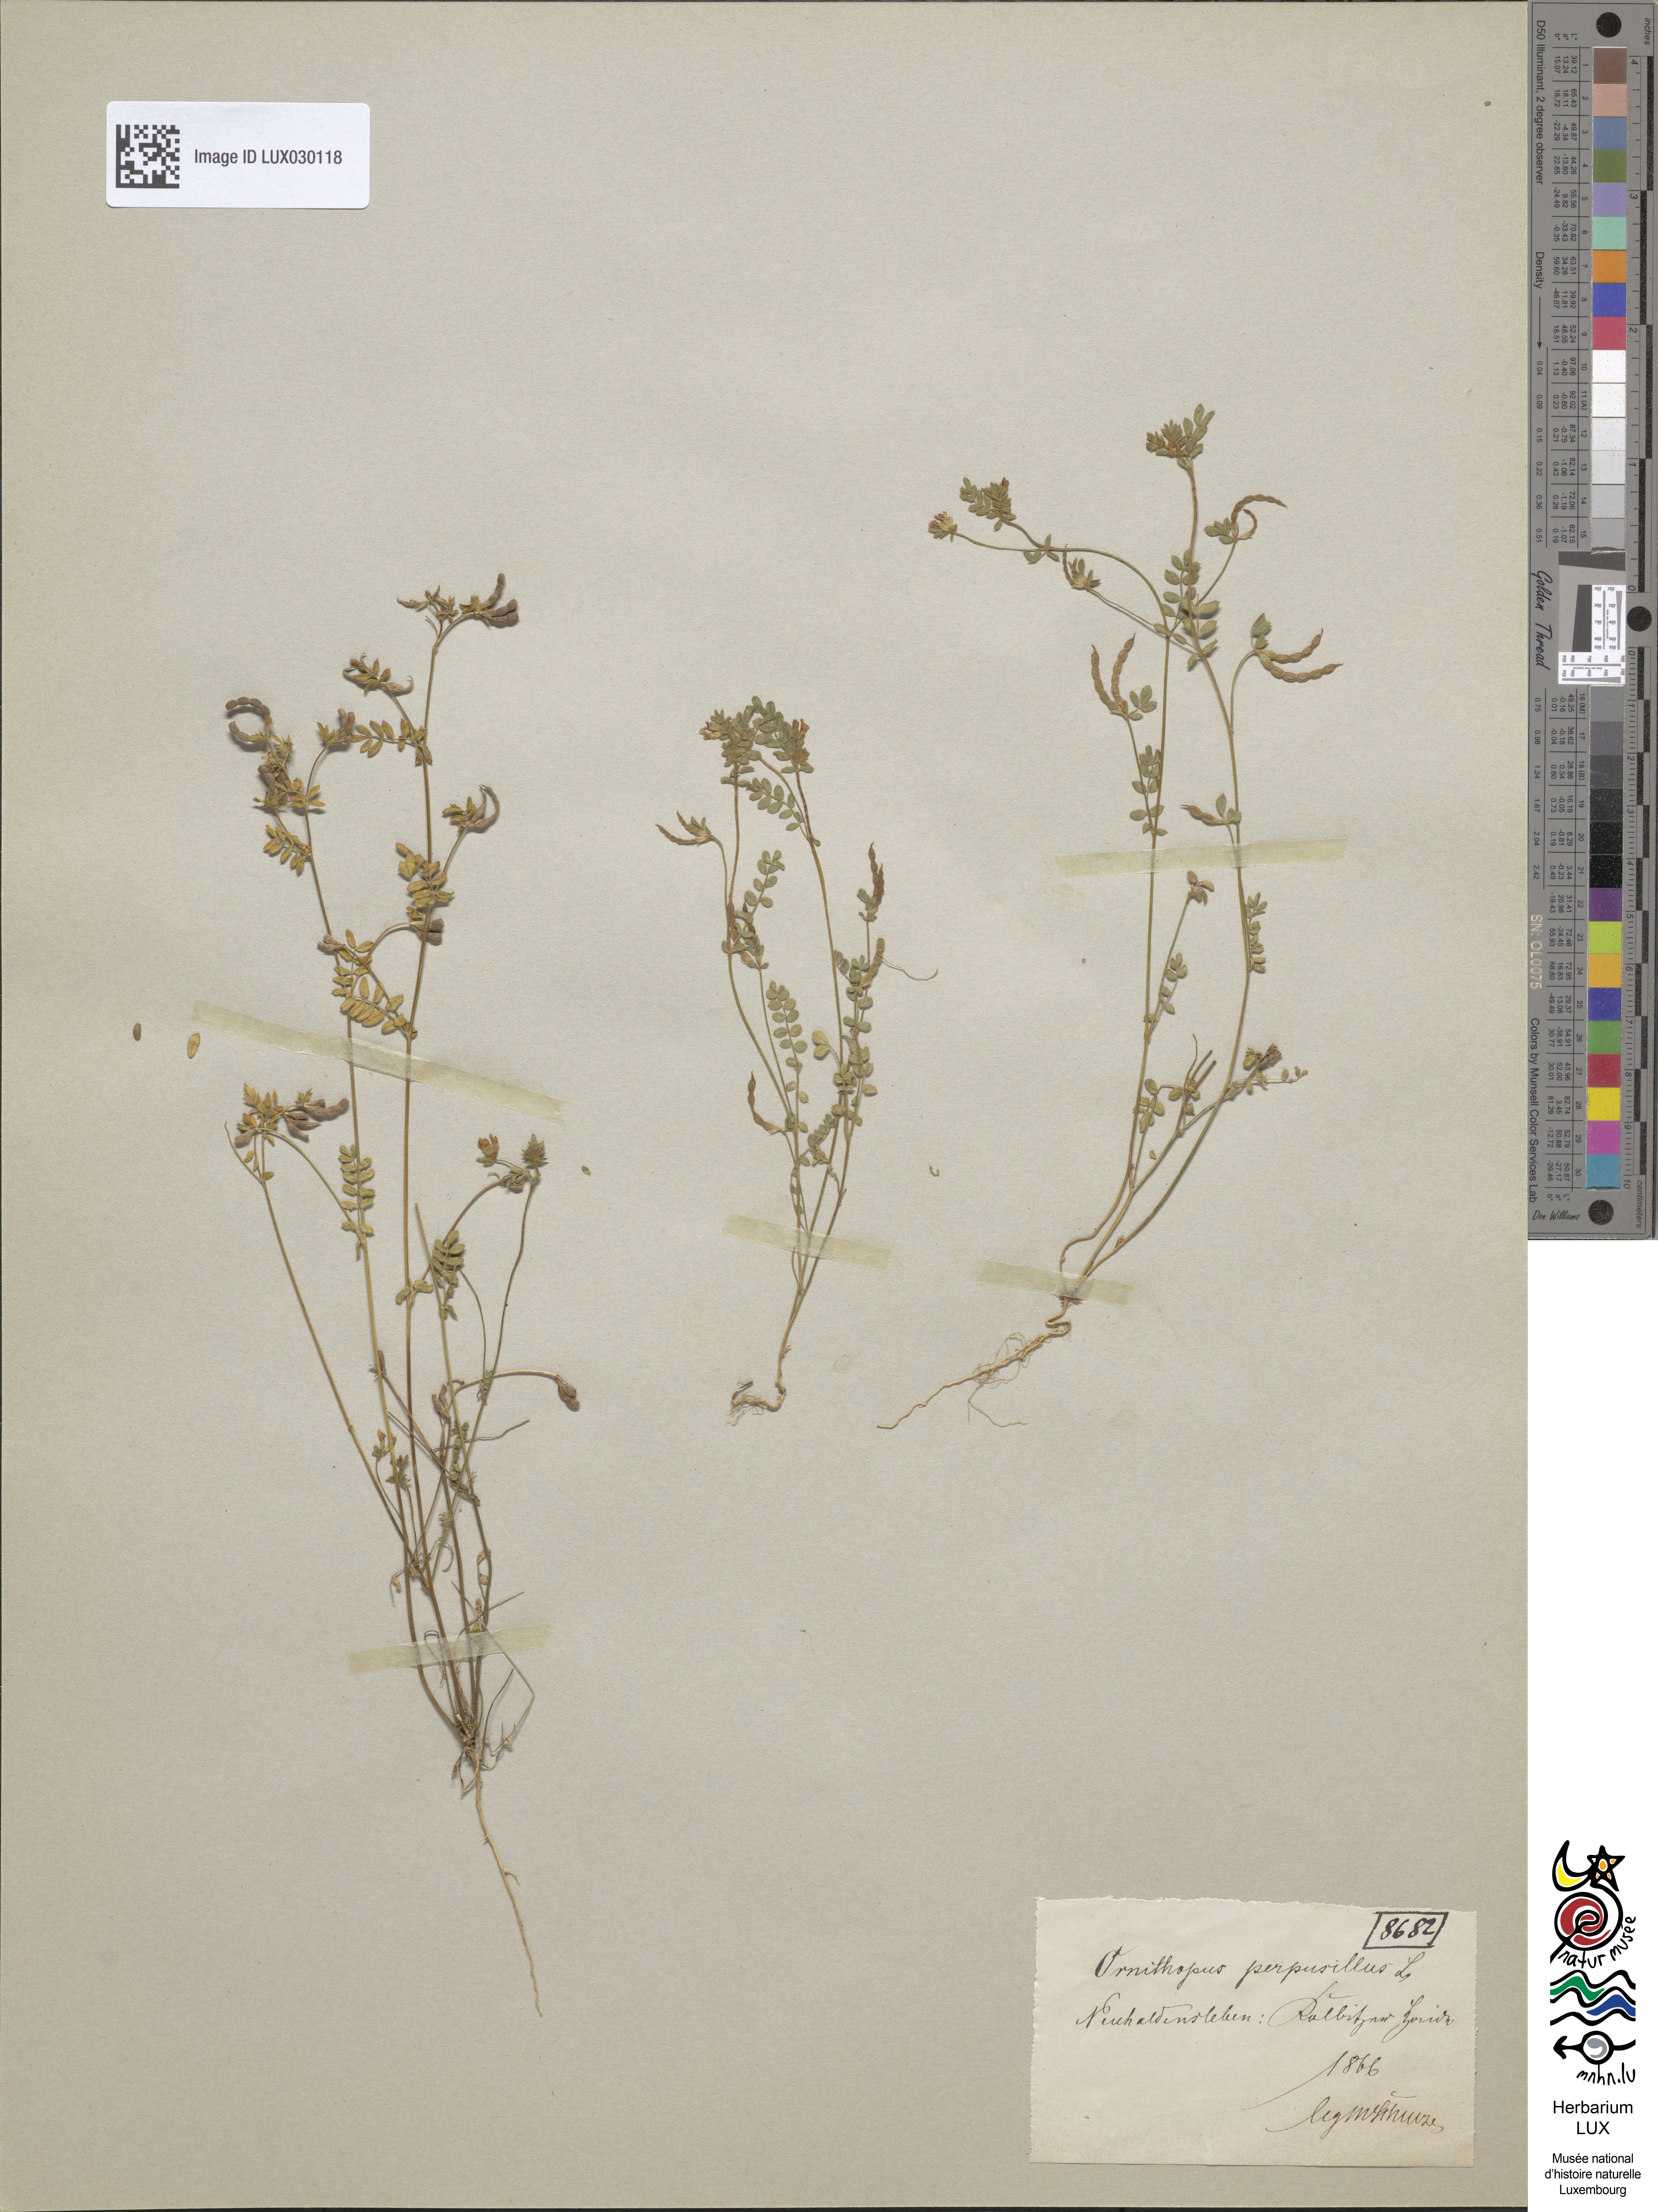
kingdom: Plantae
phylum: Tracheophyta
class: Magnoliopsida
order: Fabales
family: Fabaceae
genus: Ornithopus
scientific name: Ornithopus perpusillus
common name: Bird's-foot
